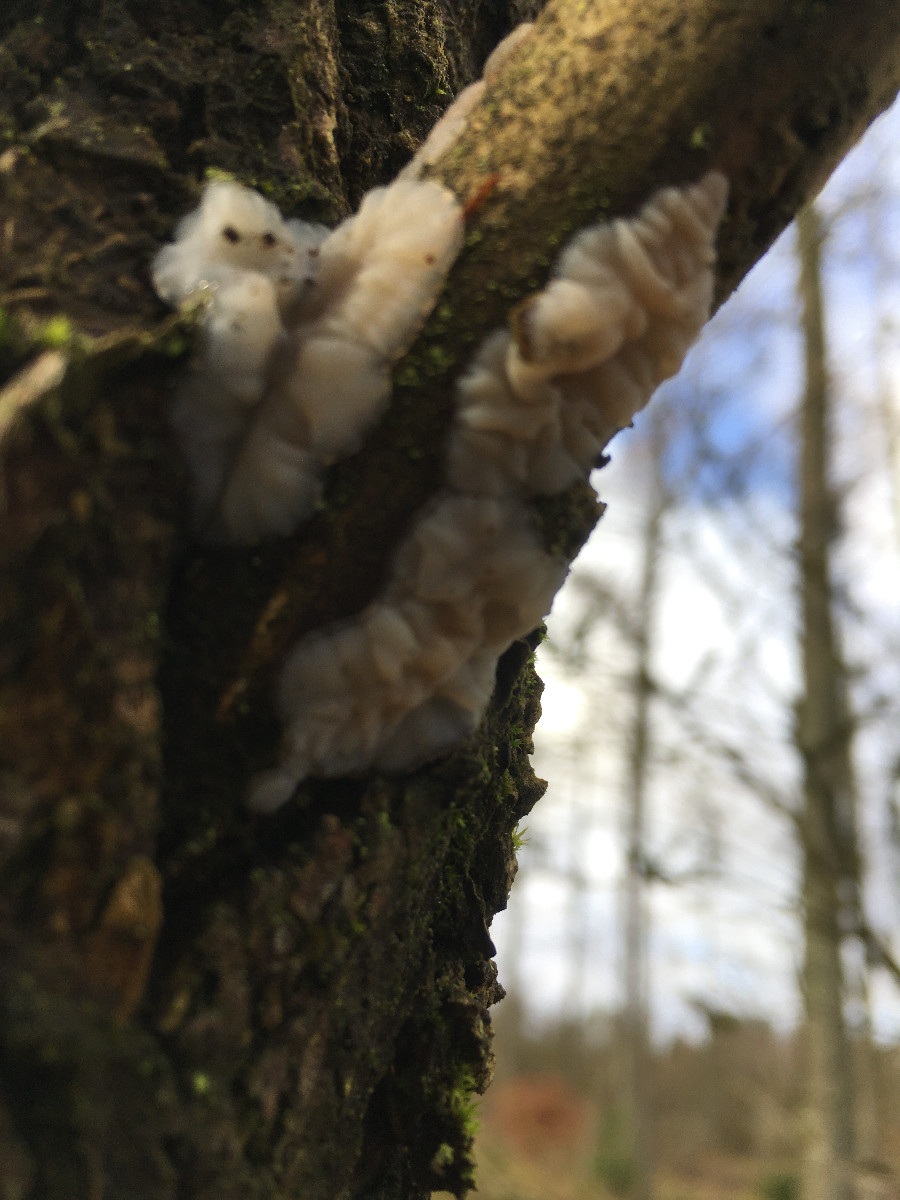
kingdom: Fungi
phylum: Basidiomycota
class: Agaricomycetes
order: Auriculariales
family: Auriculariaceae
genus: Exidia
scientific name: Exidia thuretiana
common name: hvidlig bævretop
